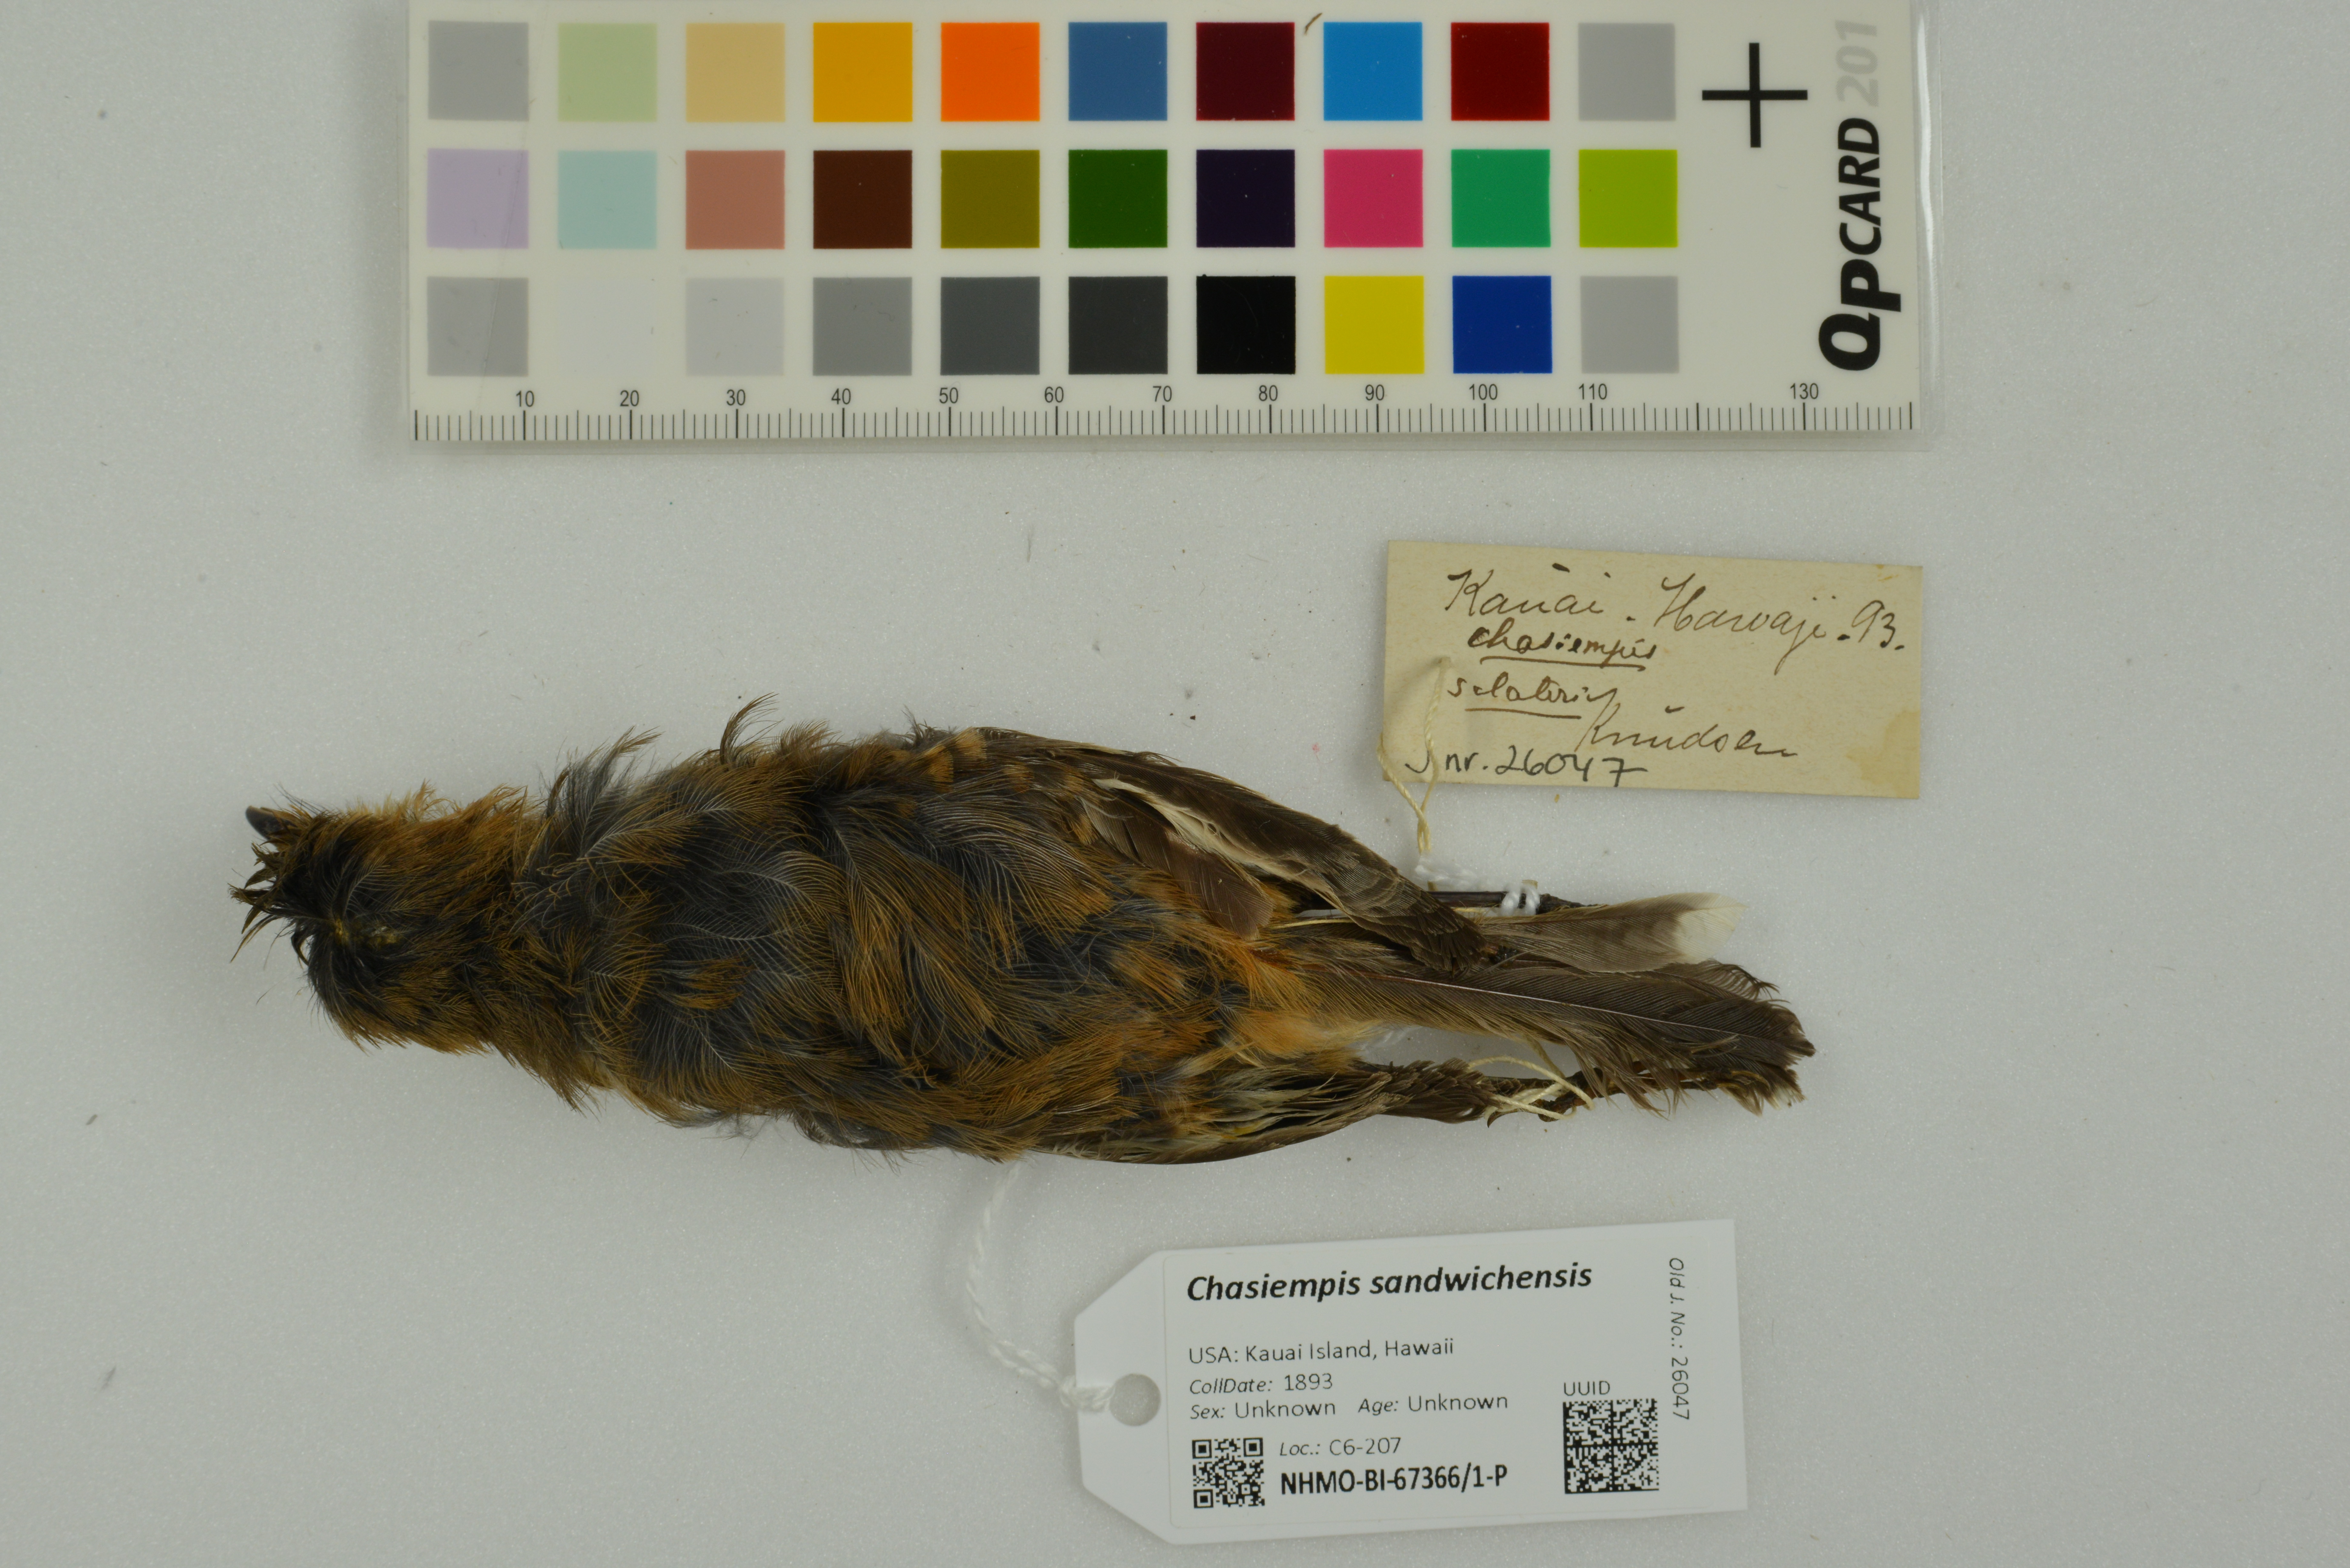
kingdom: Animalia
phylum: Chordata
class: Aves
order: Passeriformes
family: Monarchidae
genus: Chasiempis
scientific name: Chasiempis sandwichensis
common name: Hawaii elepaio
